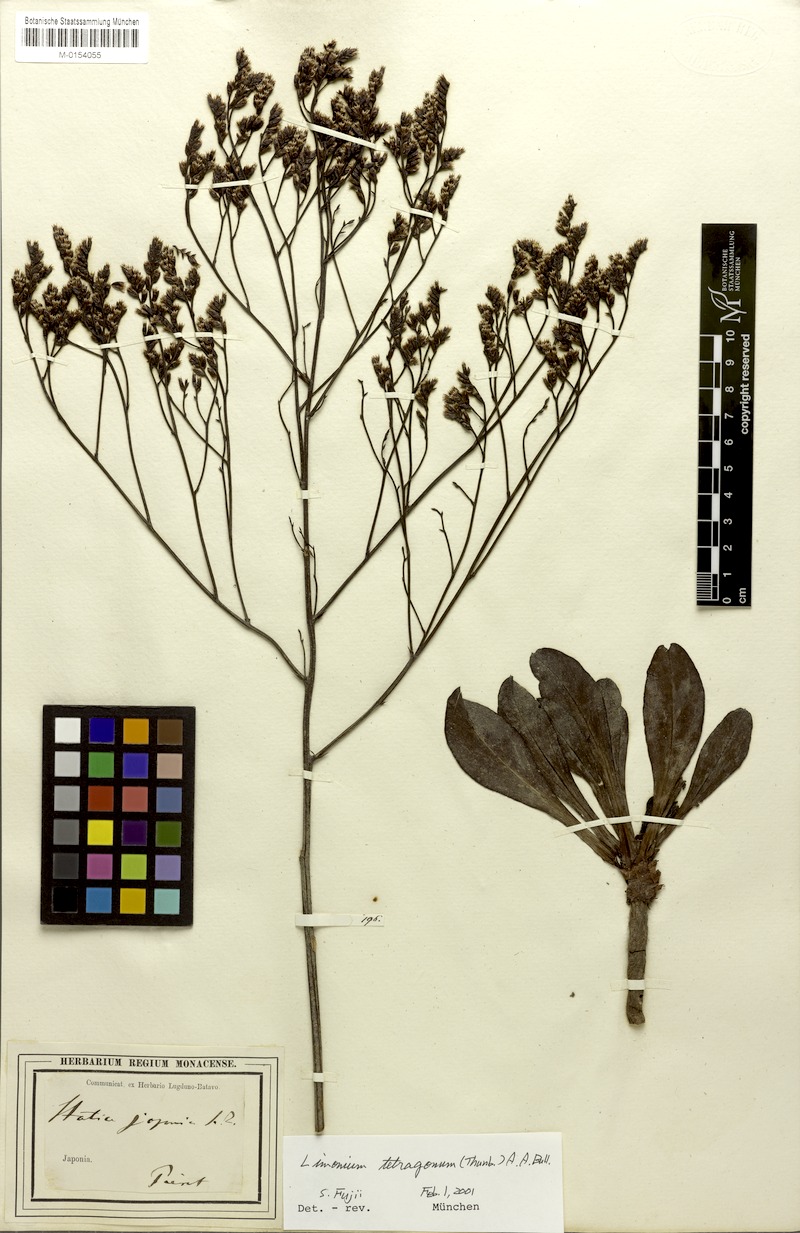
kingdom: Plantae
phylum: Tracheophyta
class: Magnoliopsida
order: Caryophyllales
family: Plumbaginaceae
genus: Limonium
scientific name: Limonium tetragonum
